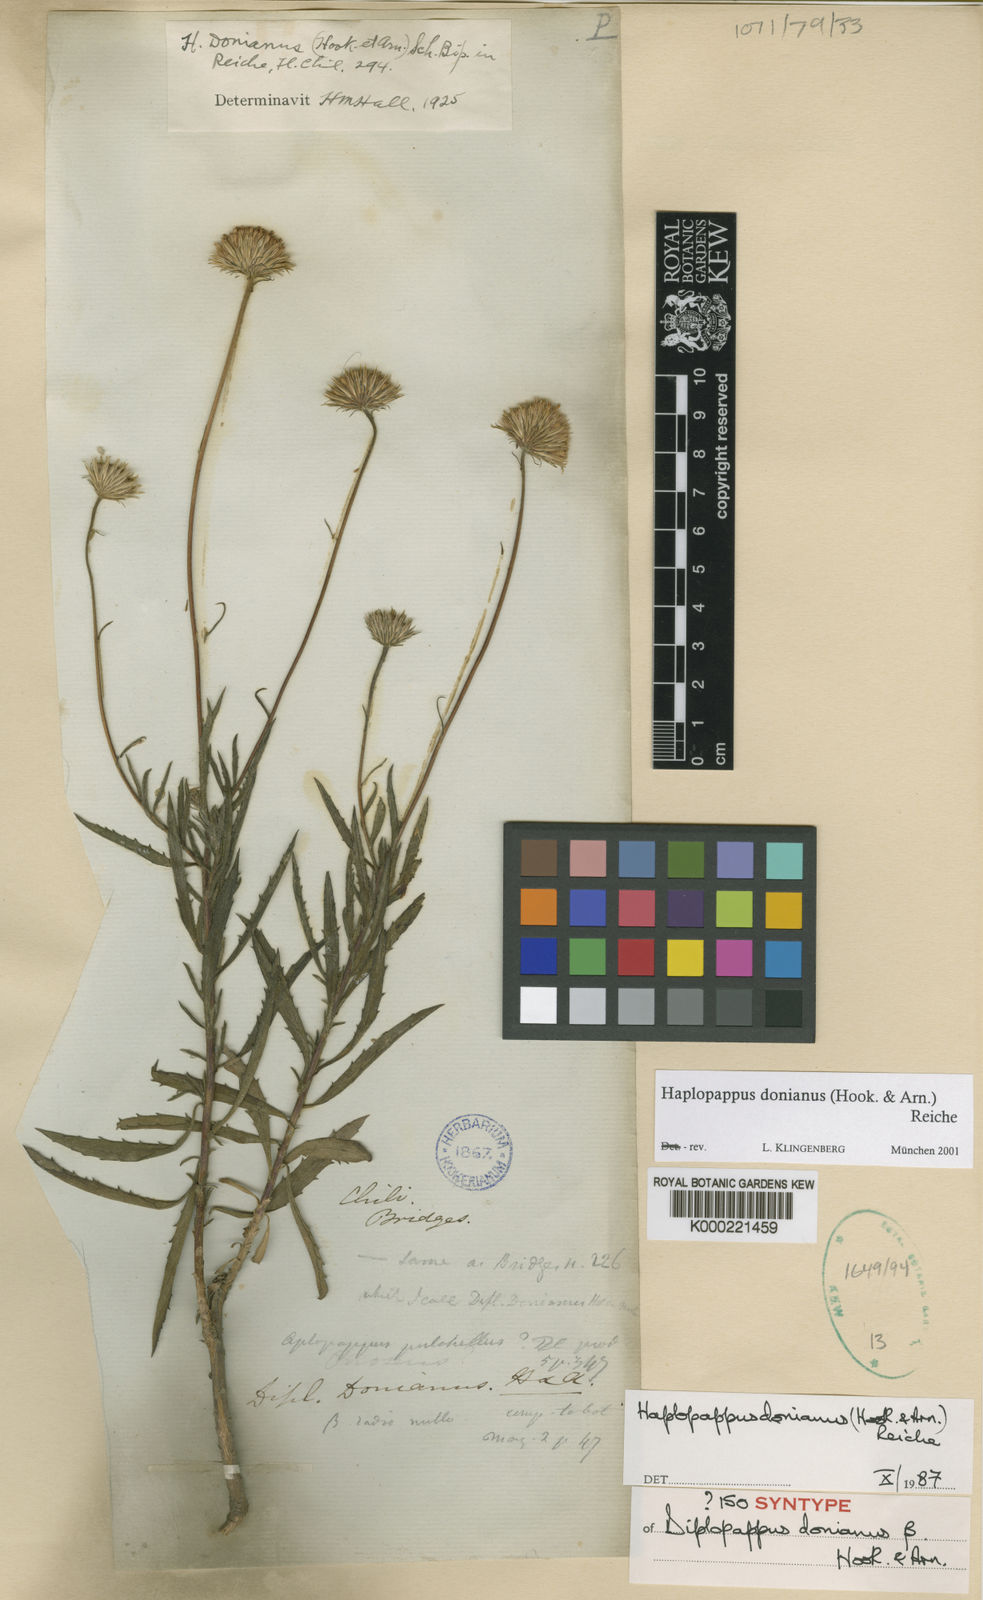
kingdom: Plantae
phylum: Tracheophyta
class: Magnoliopsida
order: Asterales
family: Asteraceae
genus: Haplopappus
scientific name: Haplopappus donianus
